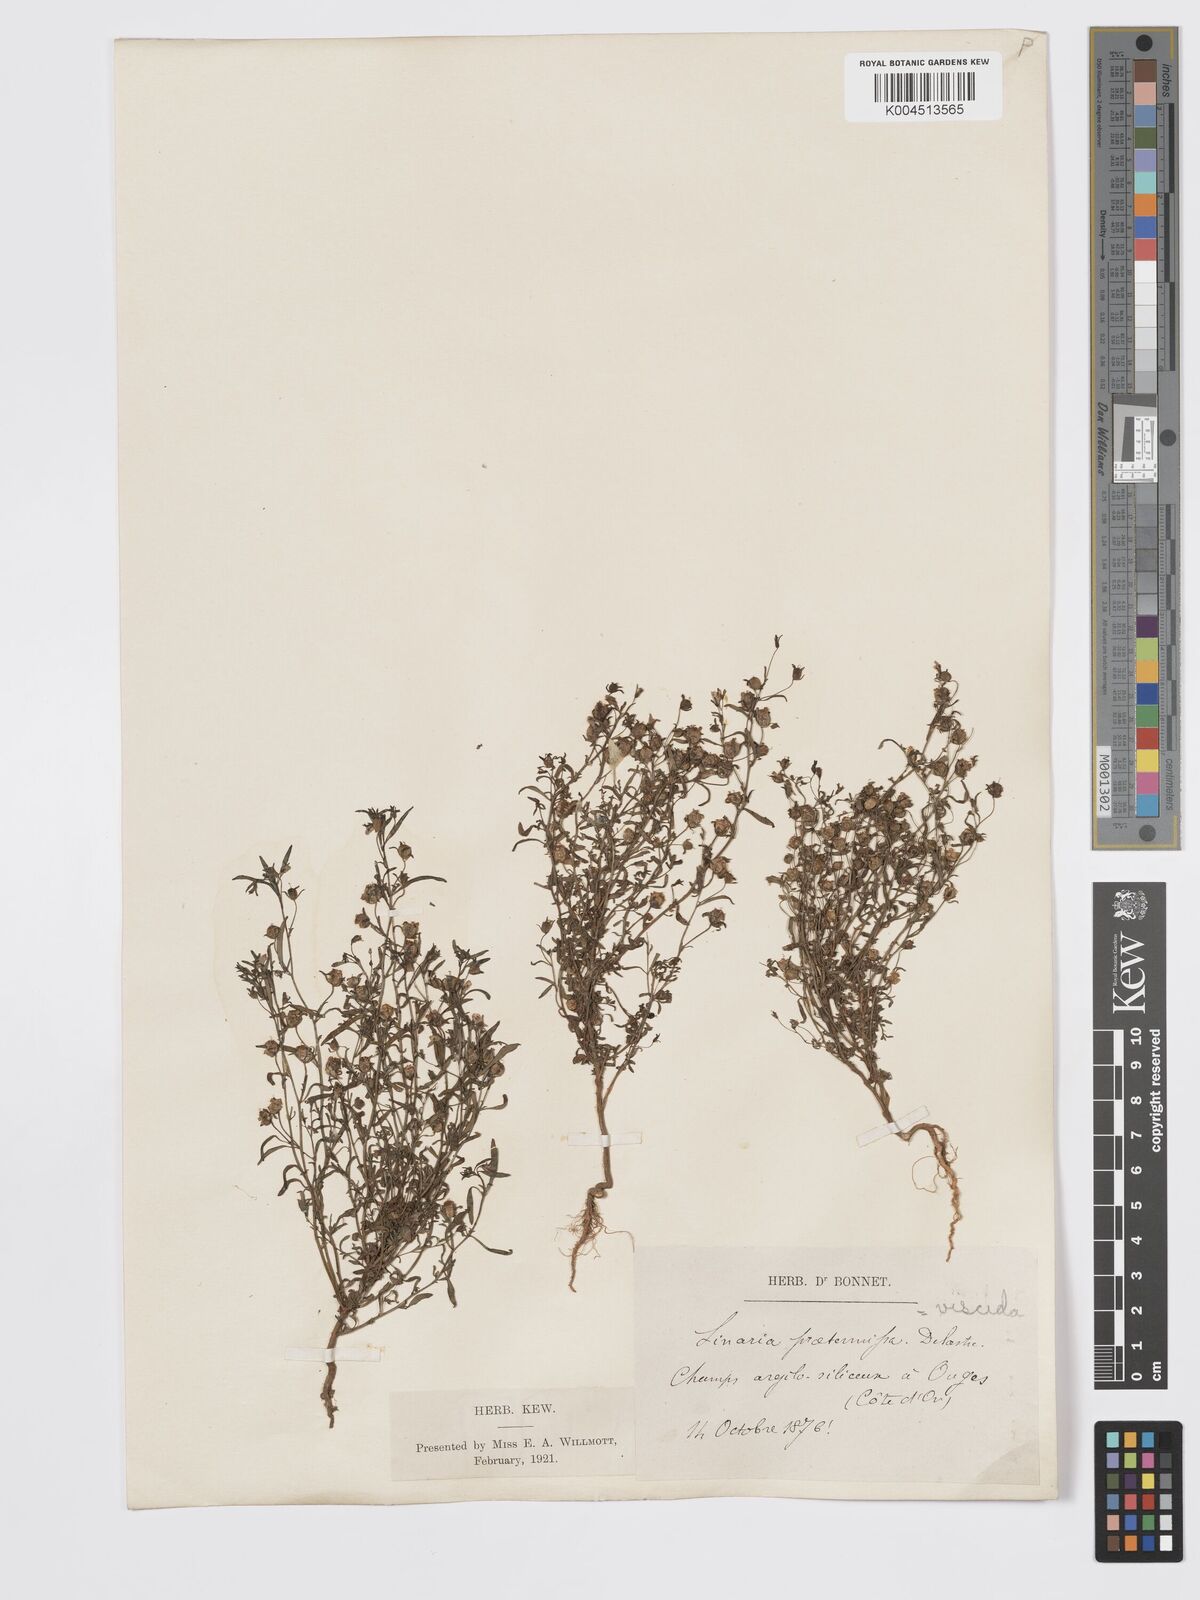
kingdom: Plantae
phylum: Tracheophyta
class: Magnoliopsida
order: Lamiales
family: Plantaginaceae
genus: Chaenorhinum
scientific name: Chaenorhinum minus
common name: Dwarf snapdragon
